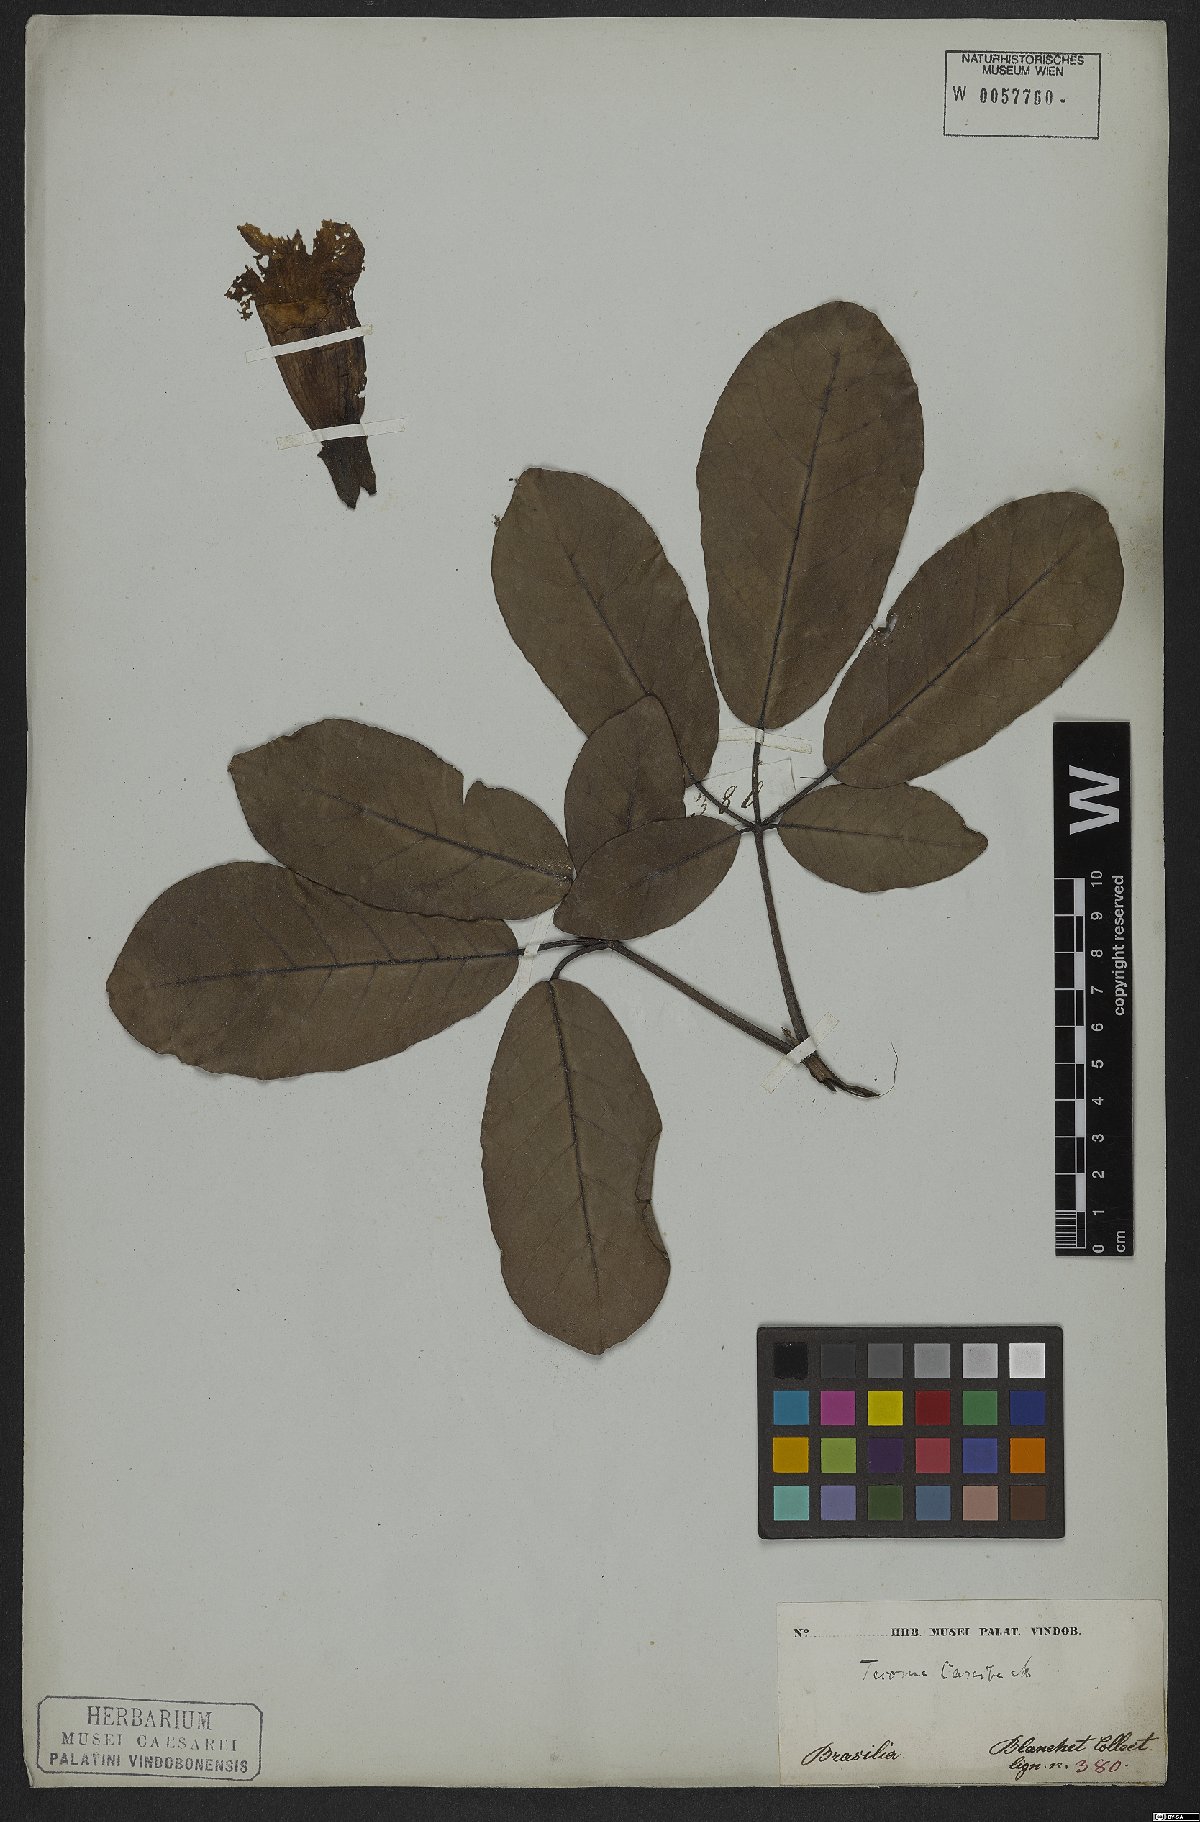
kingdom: Plantae
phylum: Tracheophyta
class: Magnoliopsida
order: Lamiales
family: Bignoniaceae
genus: Tabebuia
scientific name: Tabebuia aurea
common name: Caribbean trumpet-tree
